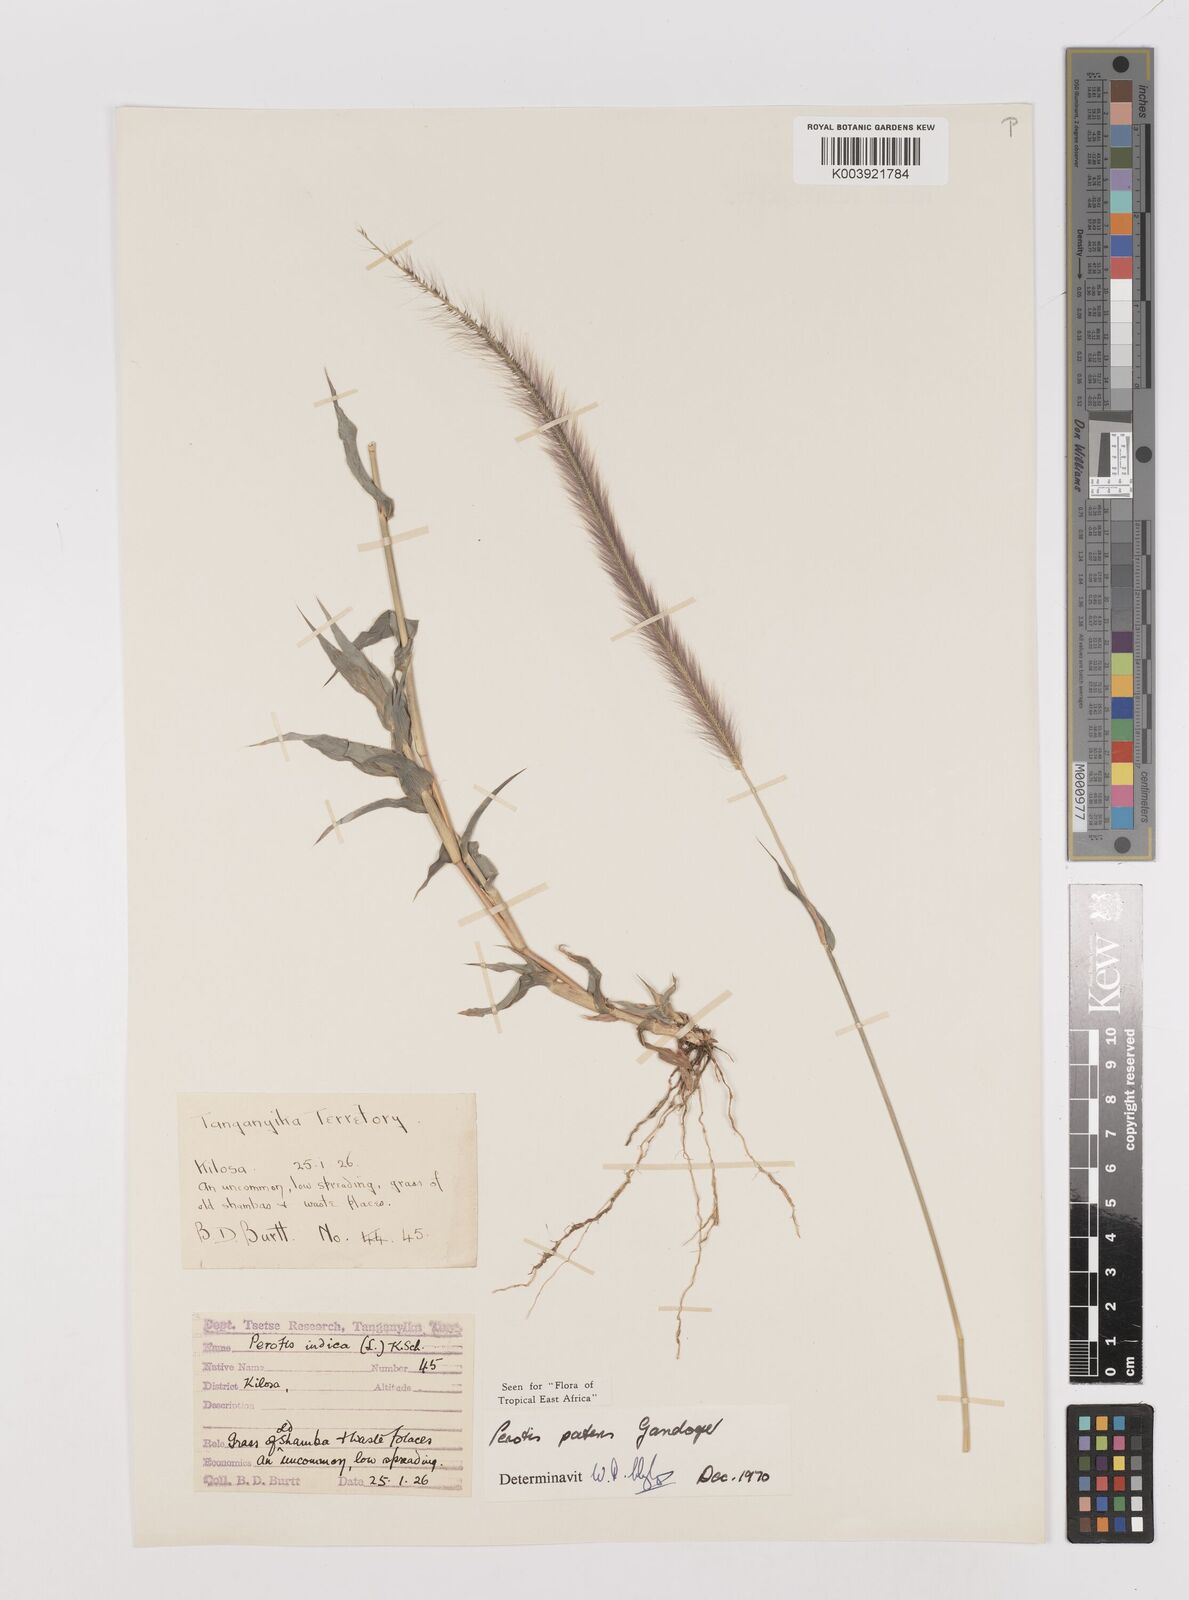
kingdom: Plantae
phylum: Tracheophyta
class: Liliopsida
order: Poales
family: Poaceae
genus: Perotis
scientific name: Perotis patens
